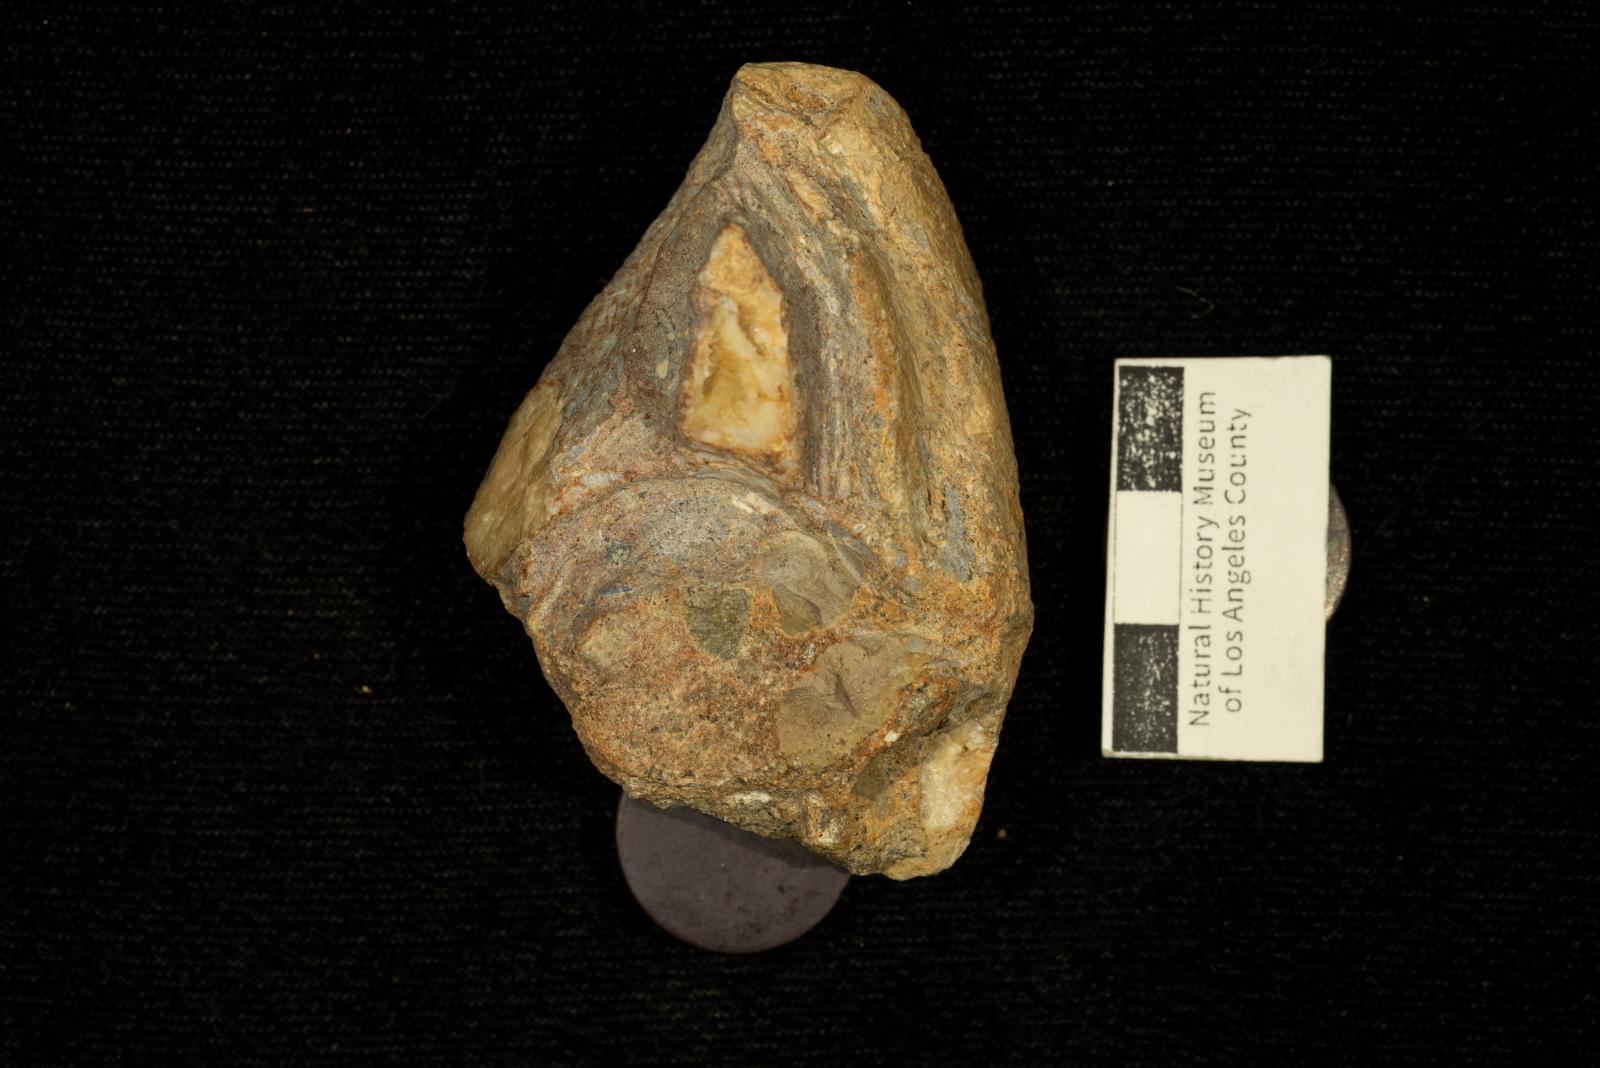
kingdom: Animalia
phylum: Mollusca
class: Bivalvia
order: Carditida
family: Astartidae
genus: Opis
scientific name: Opis Corbula triangulata
